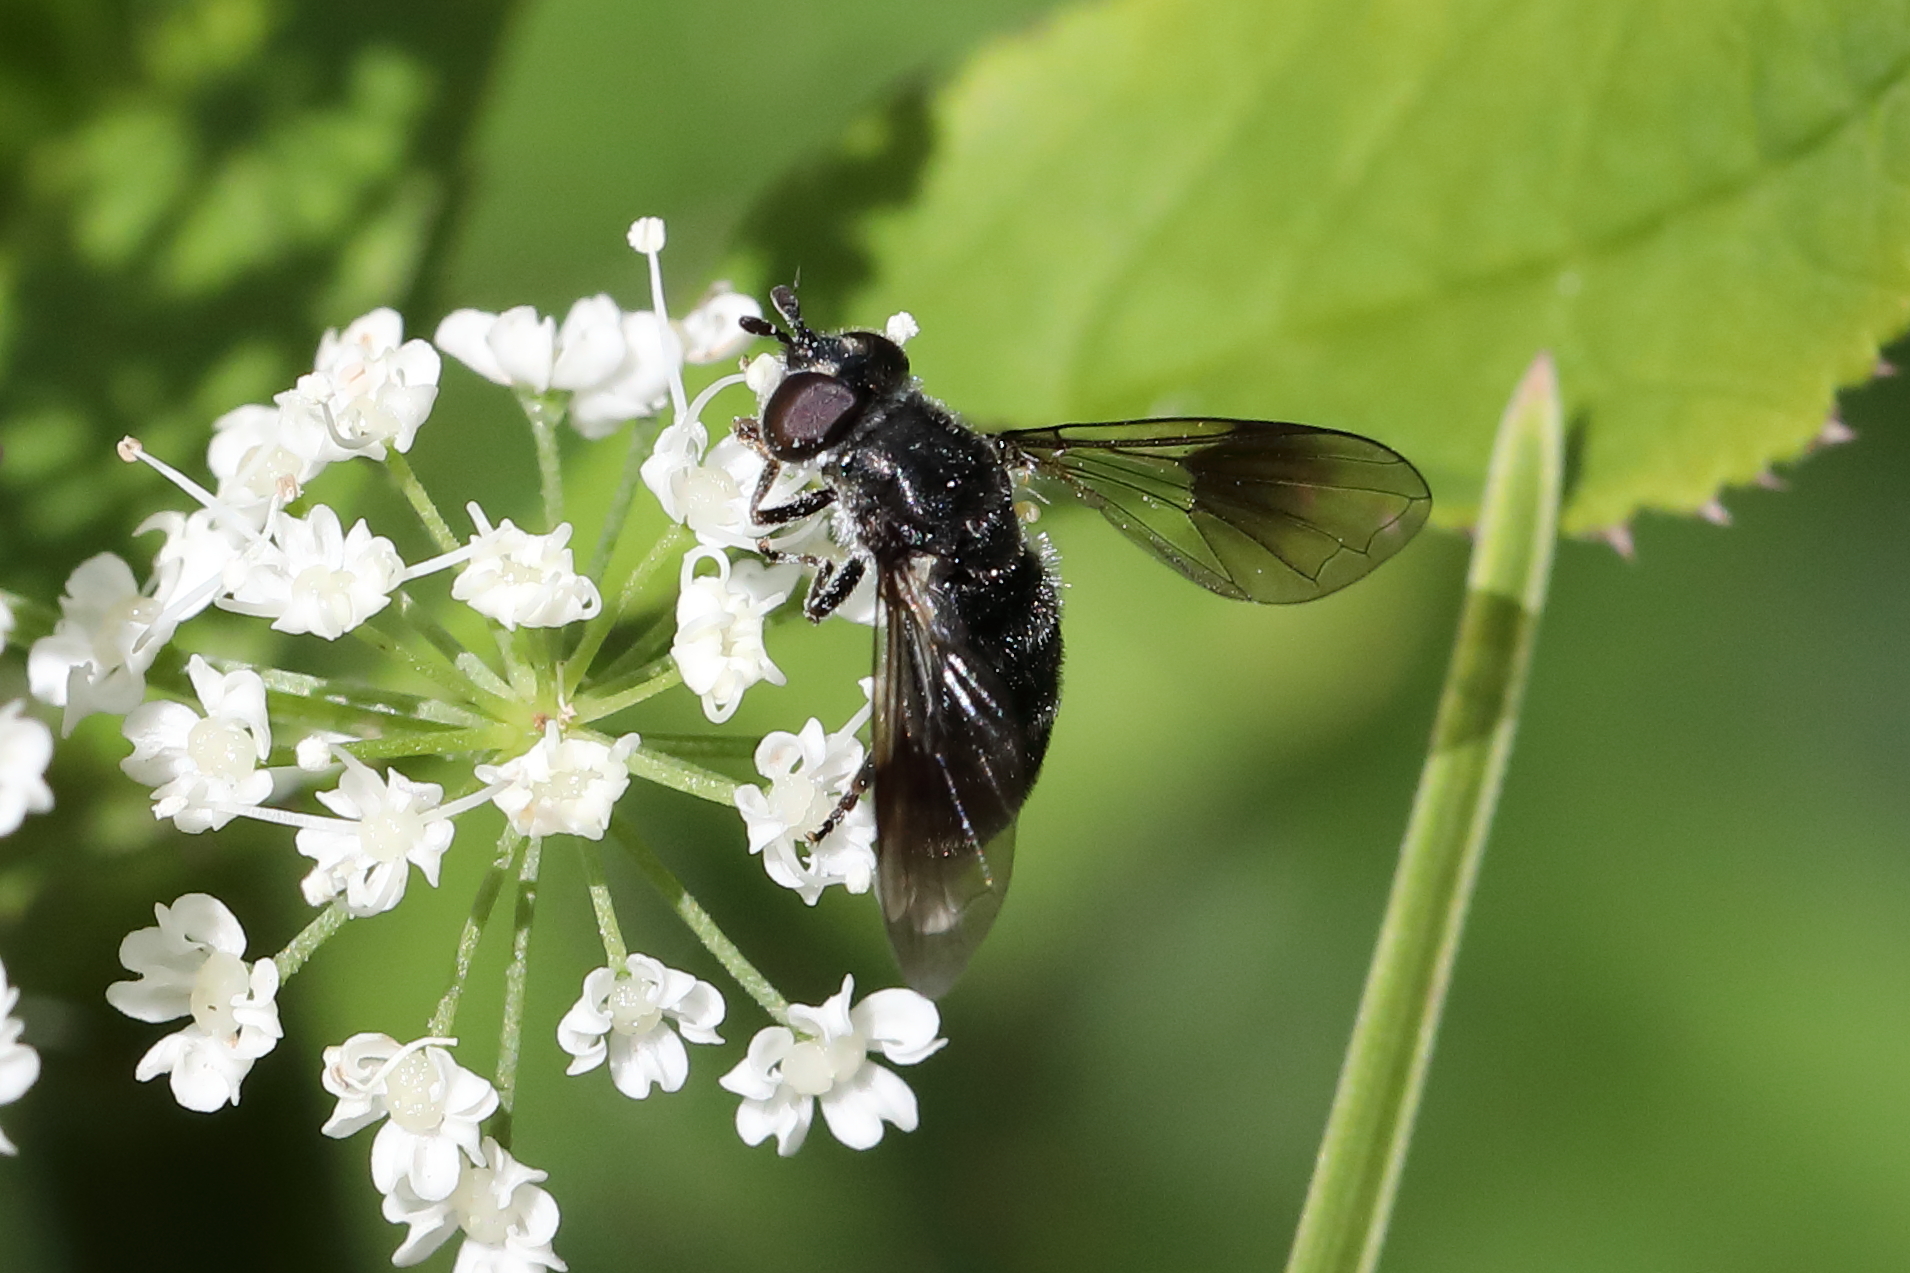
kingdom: Animalia
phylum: Arthropoda
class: Insecta
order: Diptera
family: Syrphidae
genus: Pipiza
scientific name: Pipiza lugubris
